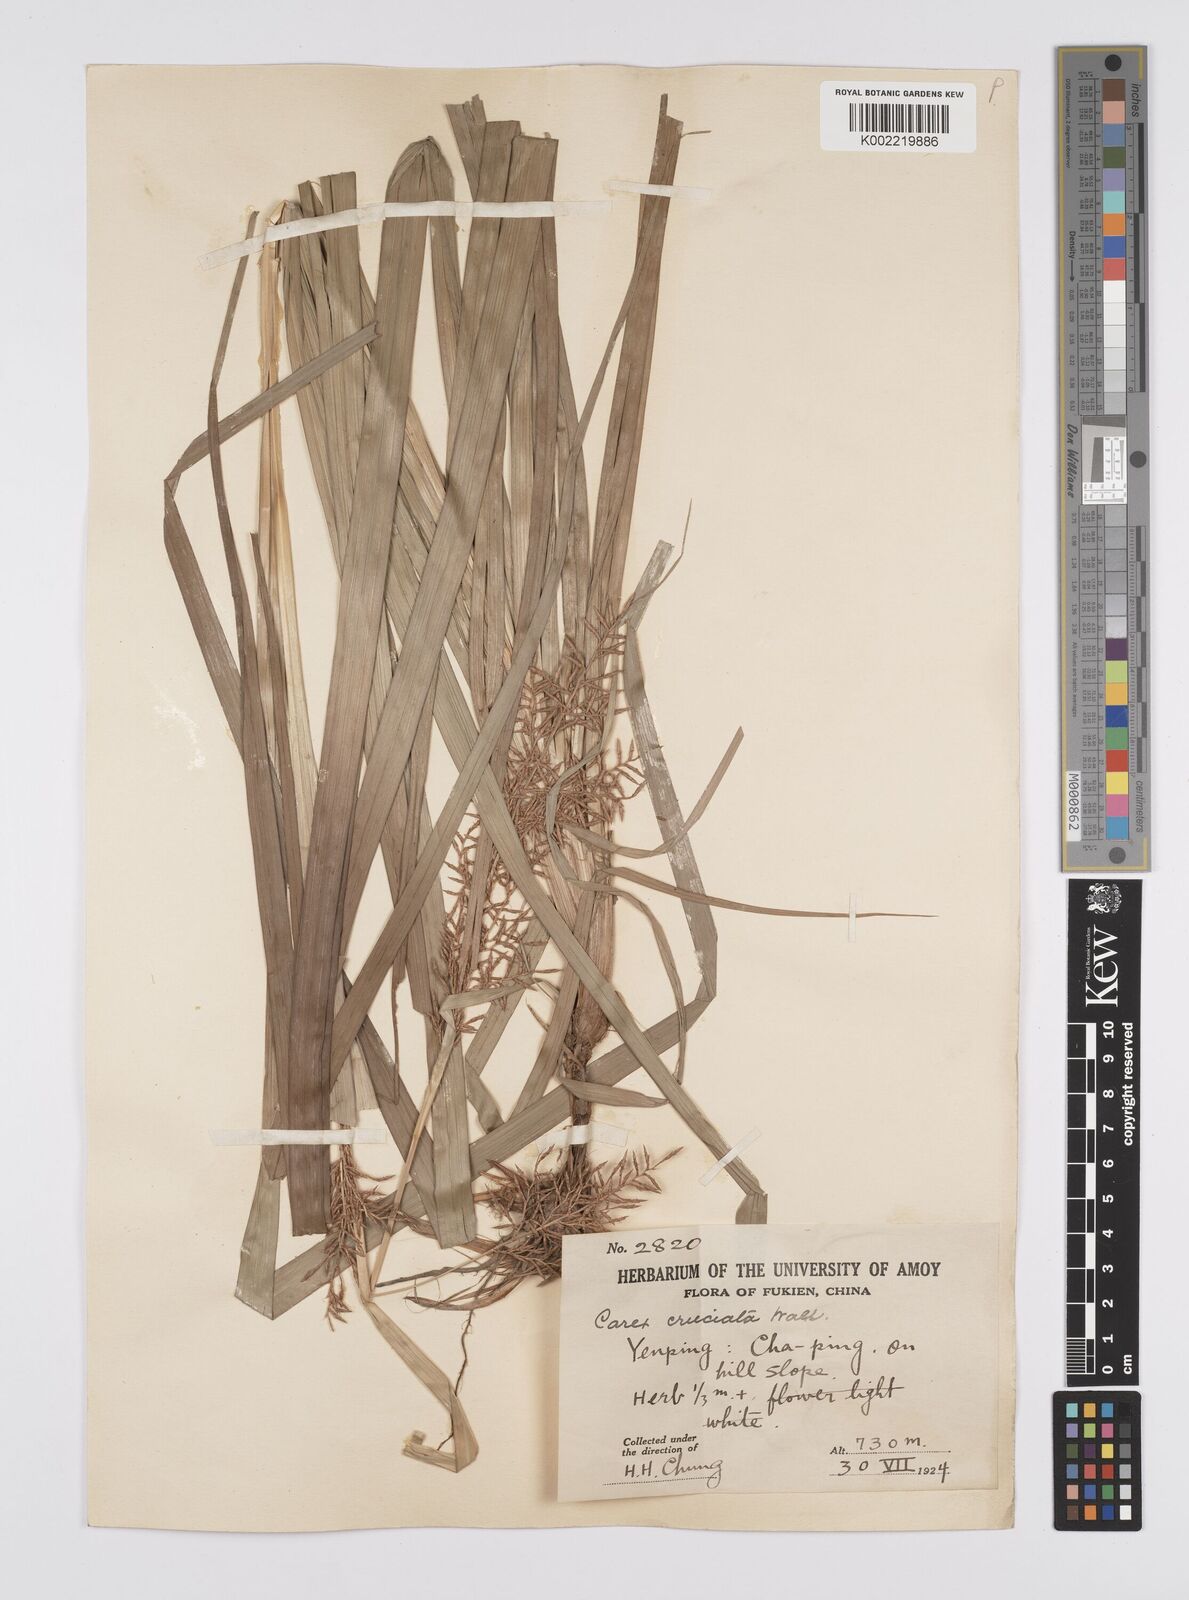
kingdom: Plantae
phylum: Tracheophyta
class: Liliopsida
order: Poales
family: Cyperaceae
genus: Carex
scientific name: Carex cruciata
